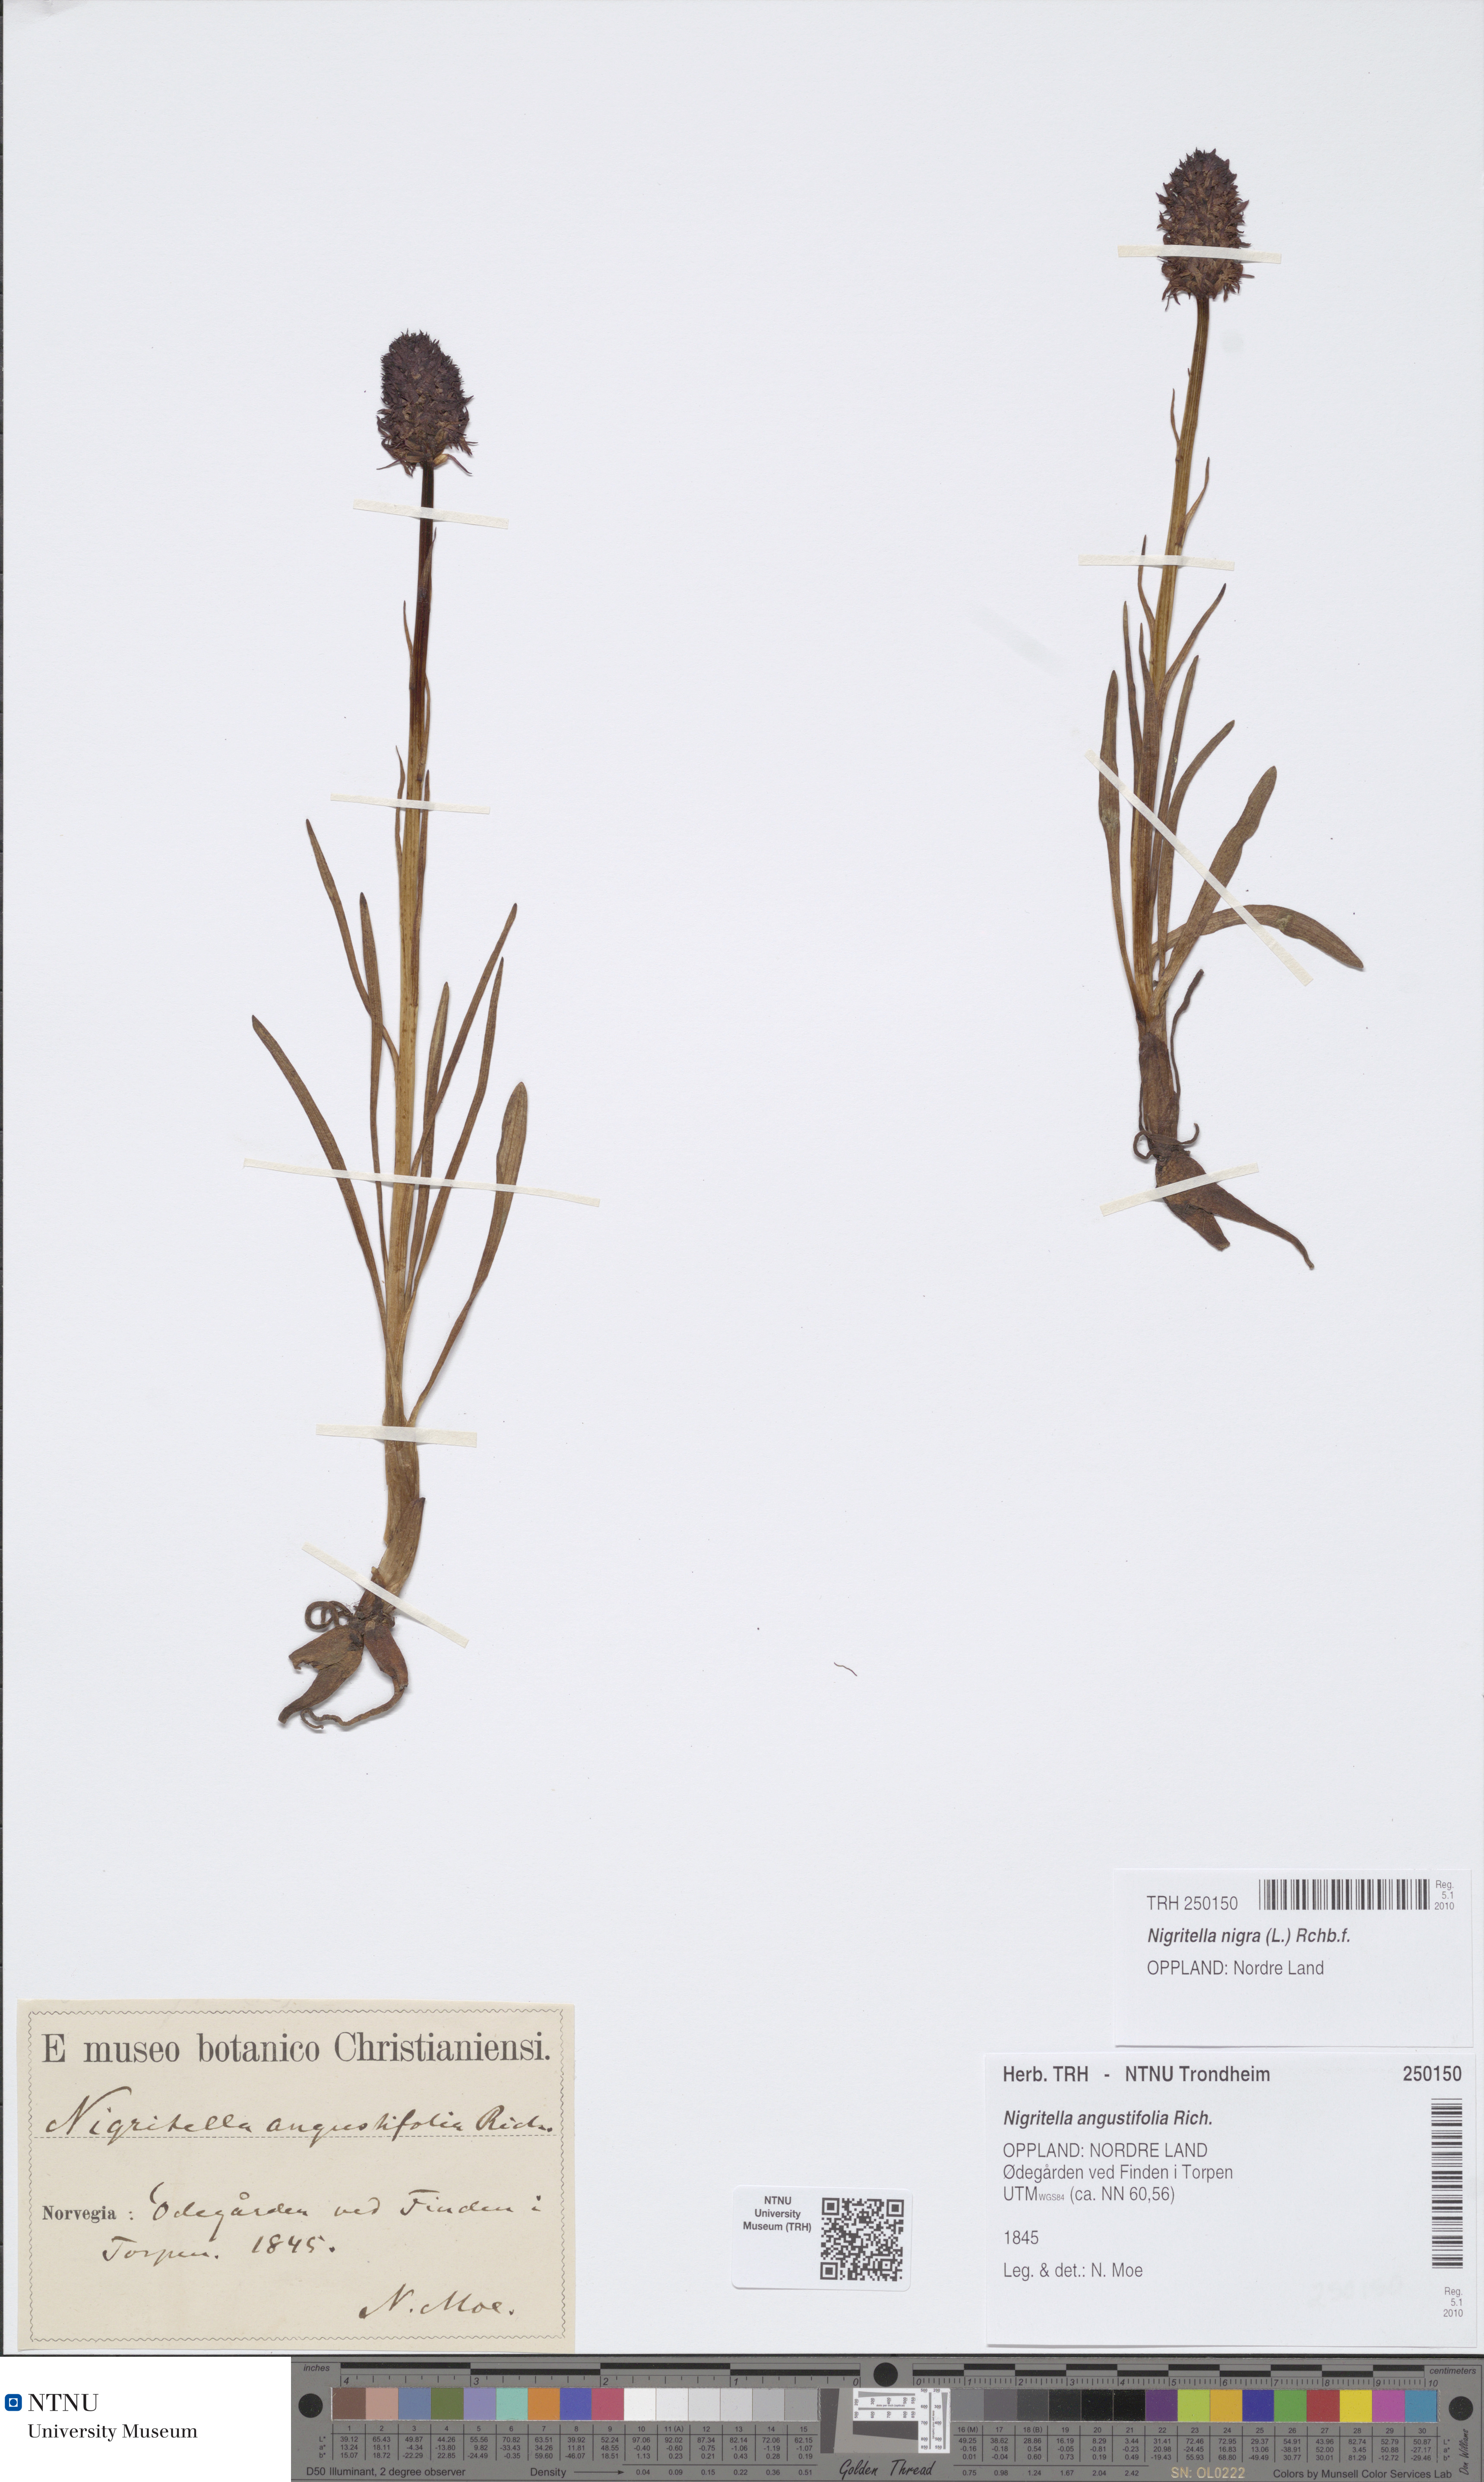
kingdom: Plantae
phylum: Tracheophyta
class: Liliopsida
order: Asparagales
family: Orchidaceae
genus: Gymnadenia
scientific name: Gymnadenia nigra
